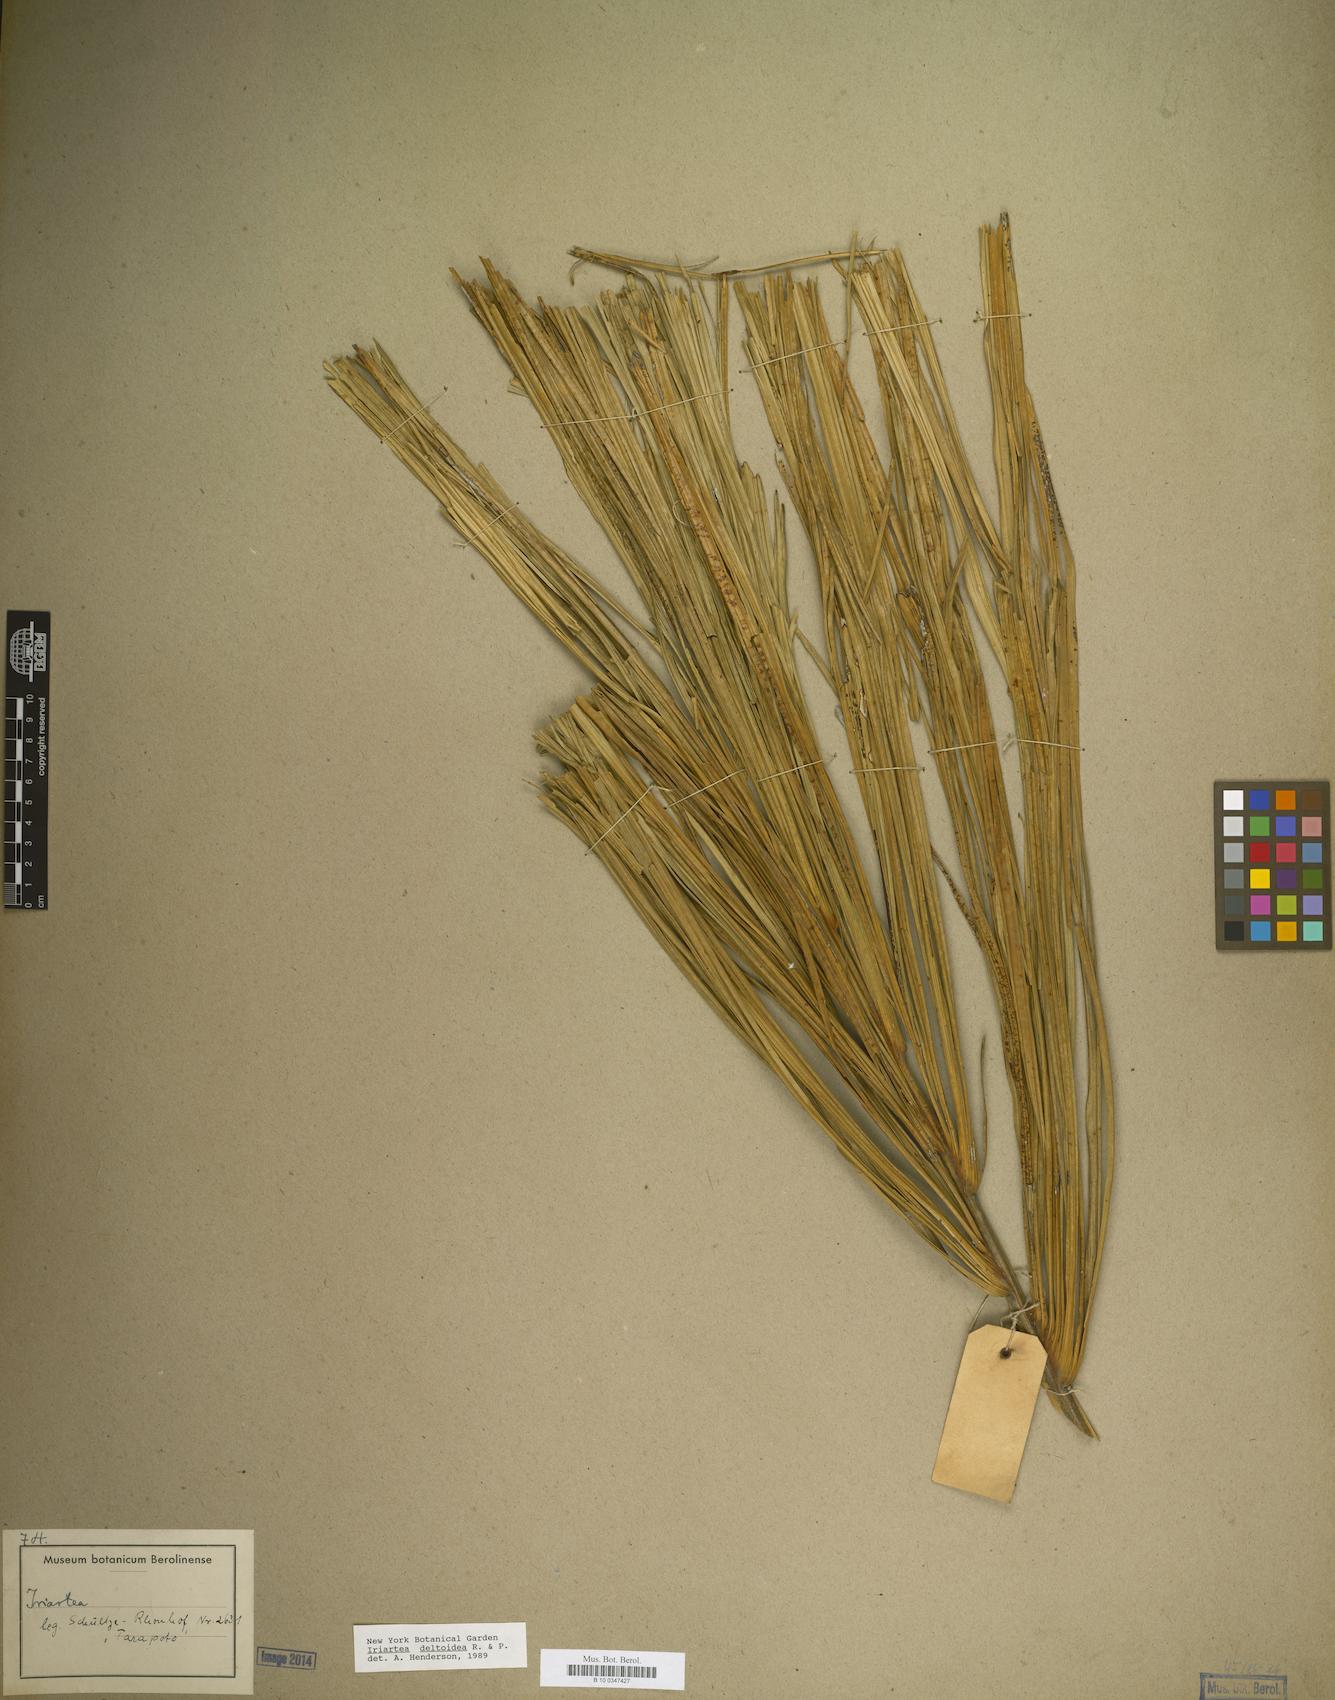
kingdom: Plantae
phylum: Tracheophyta
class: Liliopsida
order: Arecales
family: Arecaceae
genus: Iriartea
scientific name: Iriartea
